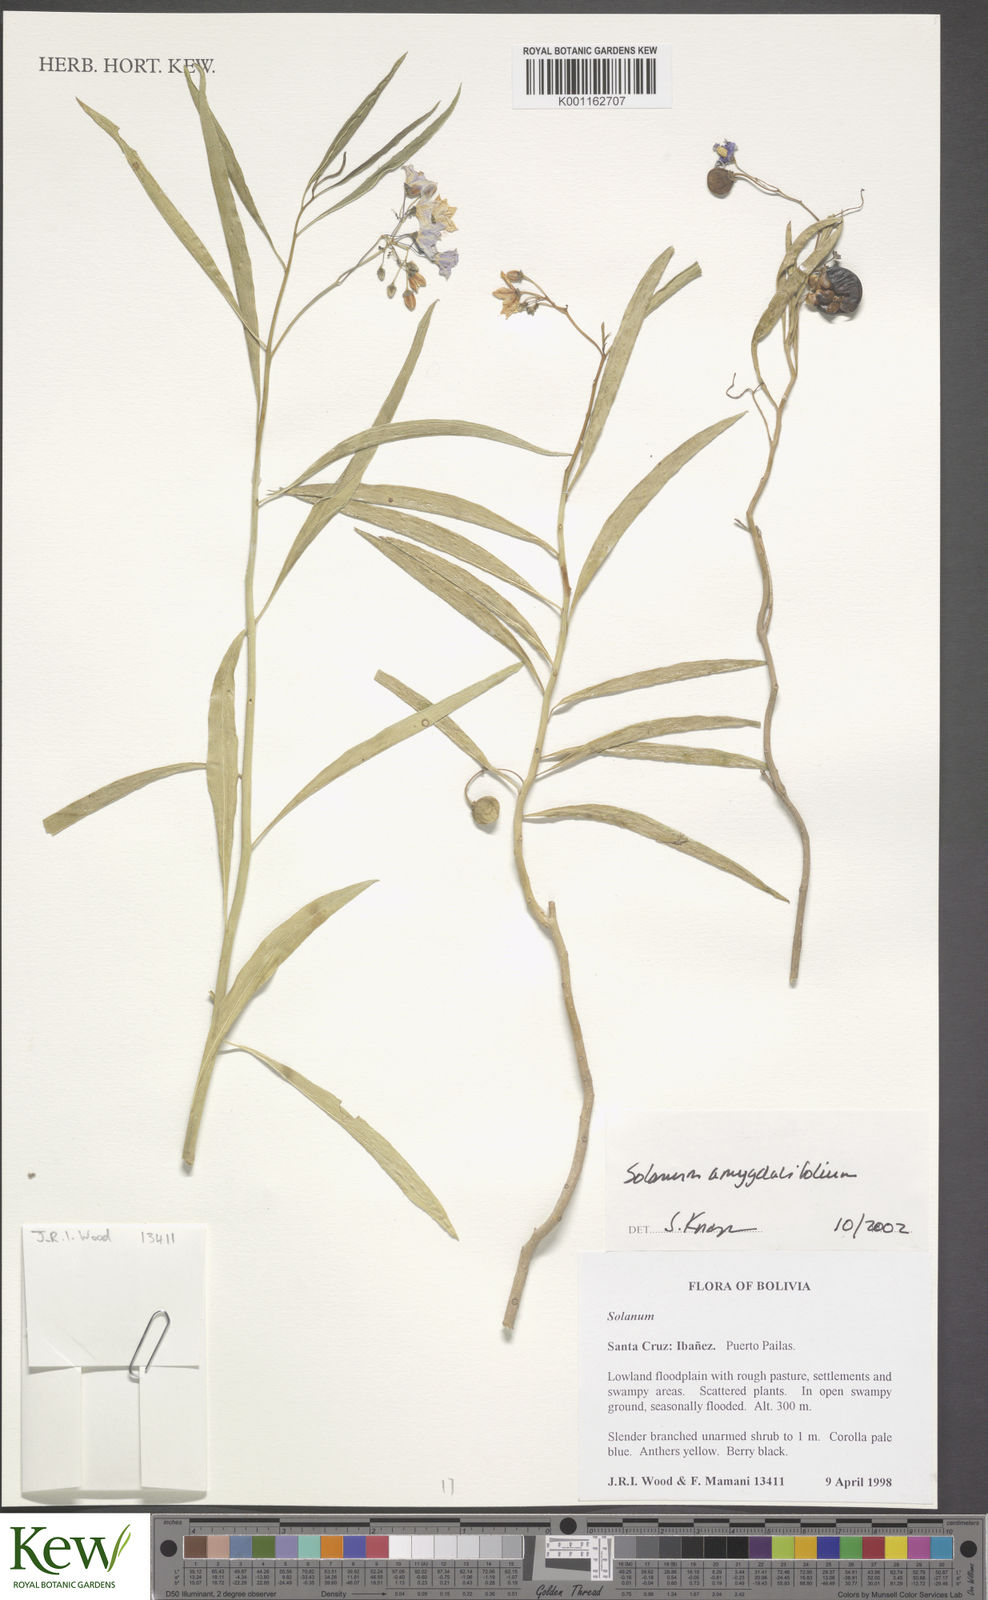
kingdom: Plantae
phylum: Tracheophyta
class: Magnoliopsida
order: Solanales
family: Solanaceae
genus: Solanum
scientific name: Solanum amygdalifolium
